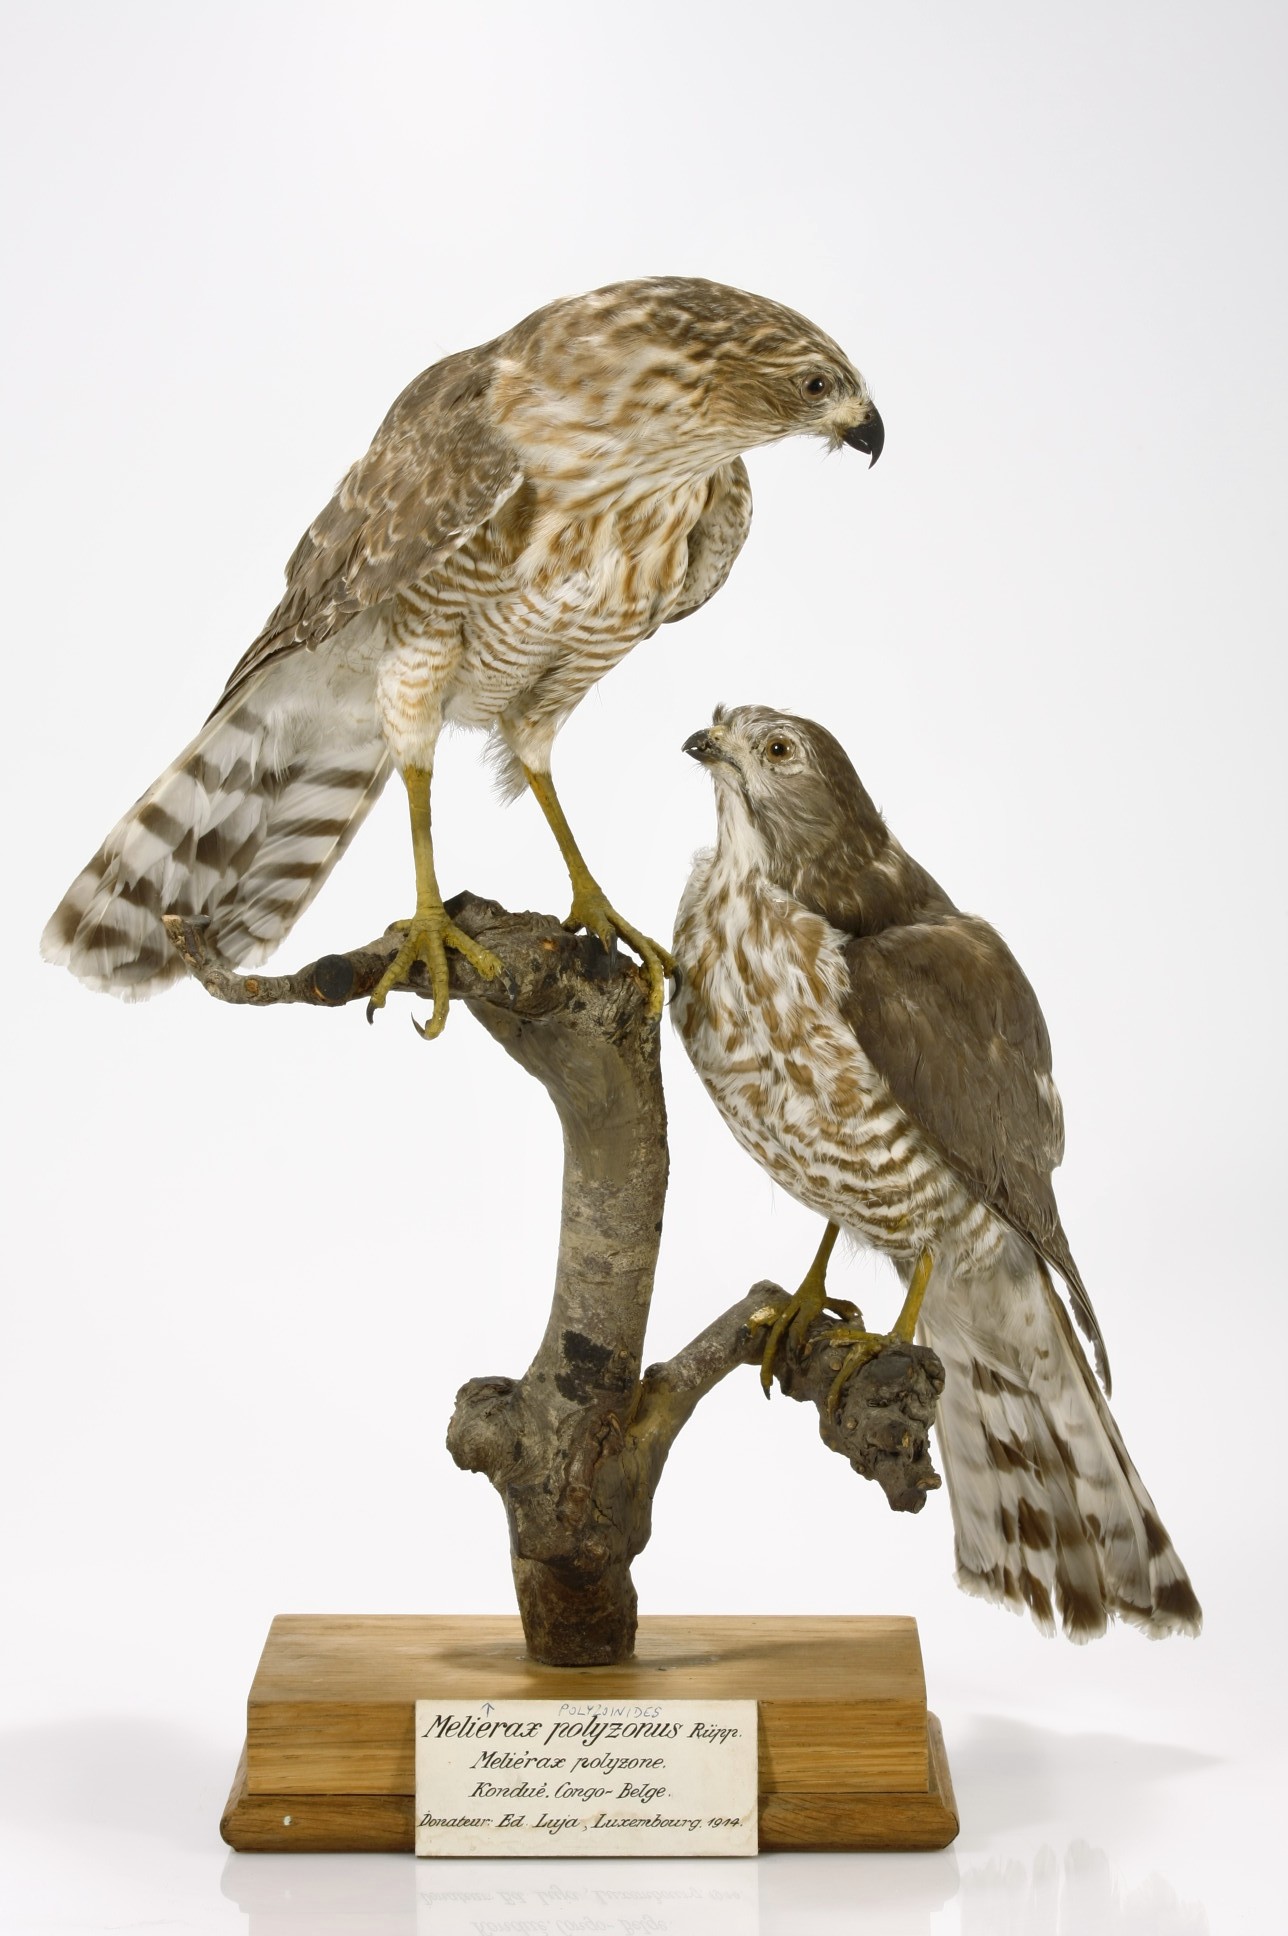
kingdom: Animalia
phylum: Chordata
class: Aves
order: Accipitriformes
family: Accipitridae
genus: Micronisus
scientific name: Micronisus gabar
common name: Gabar goshawk
